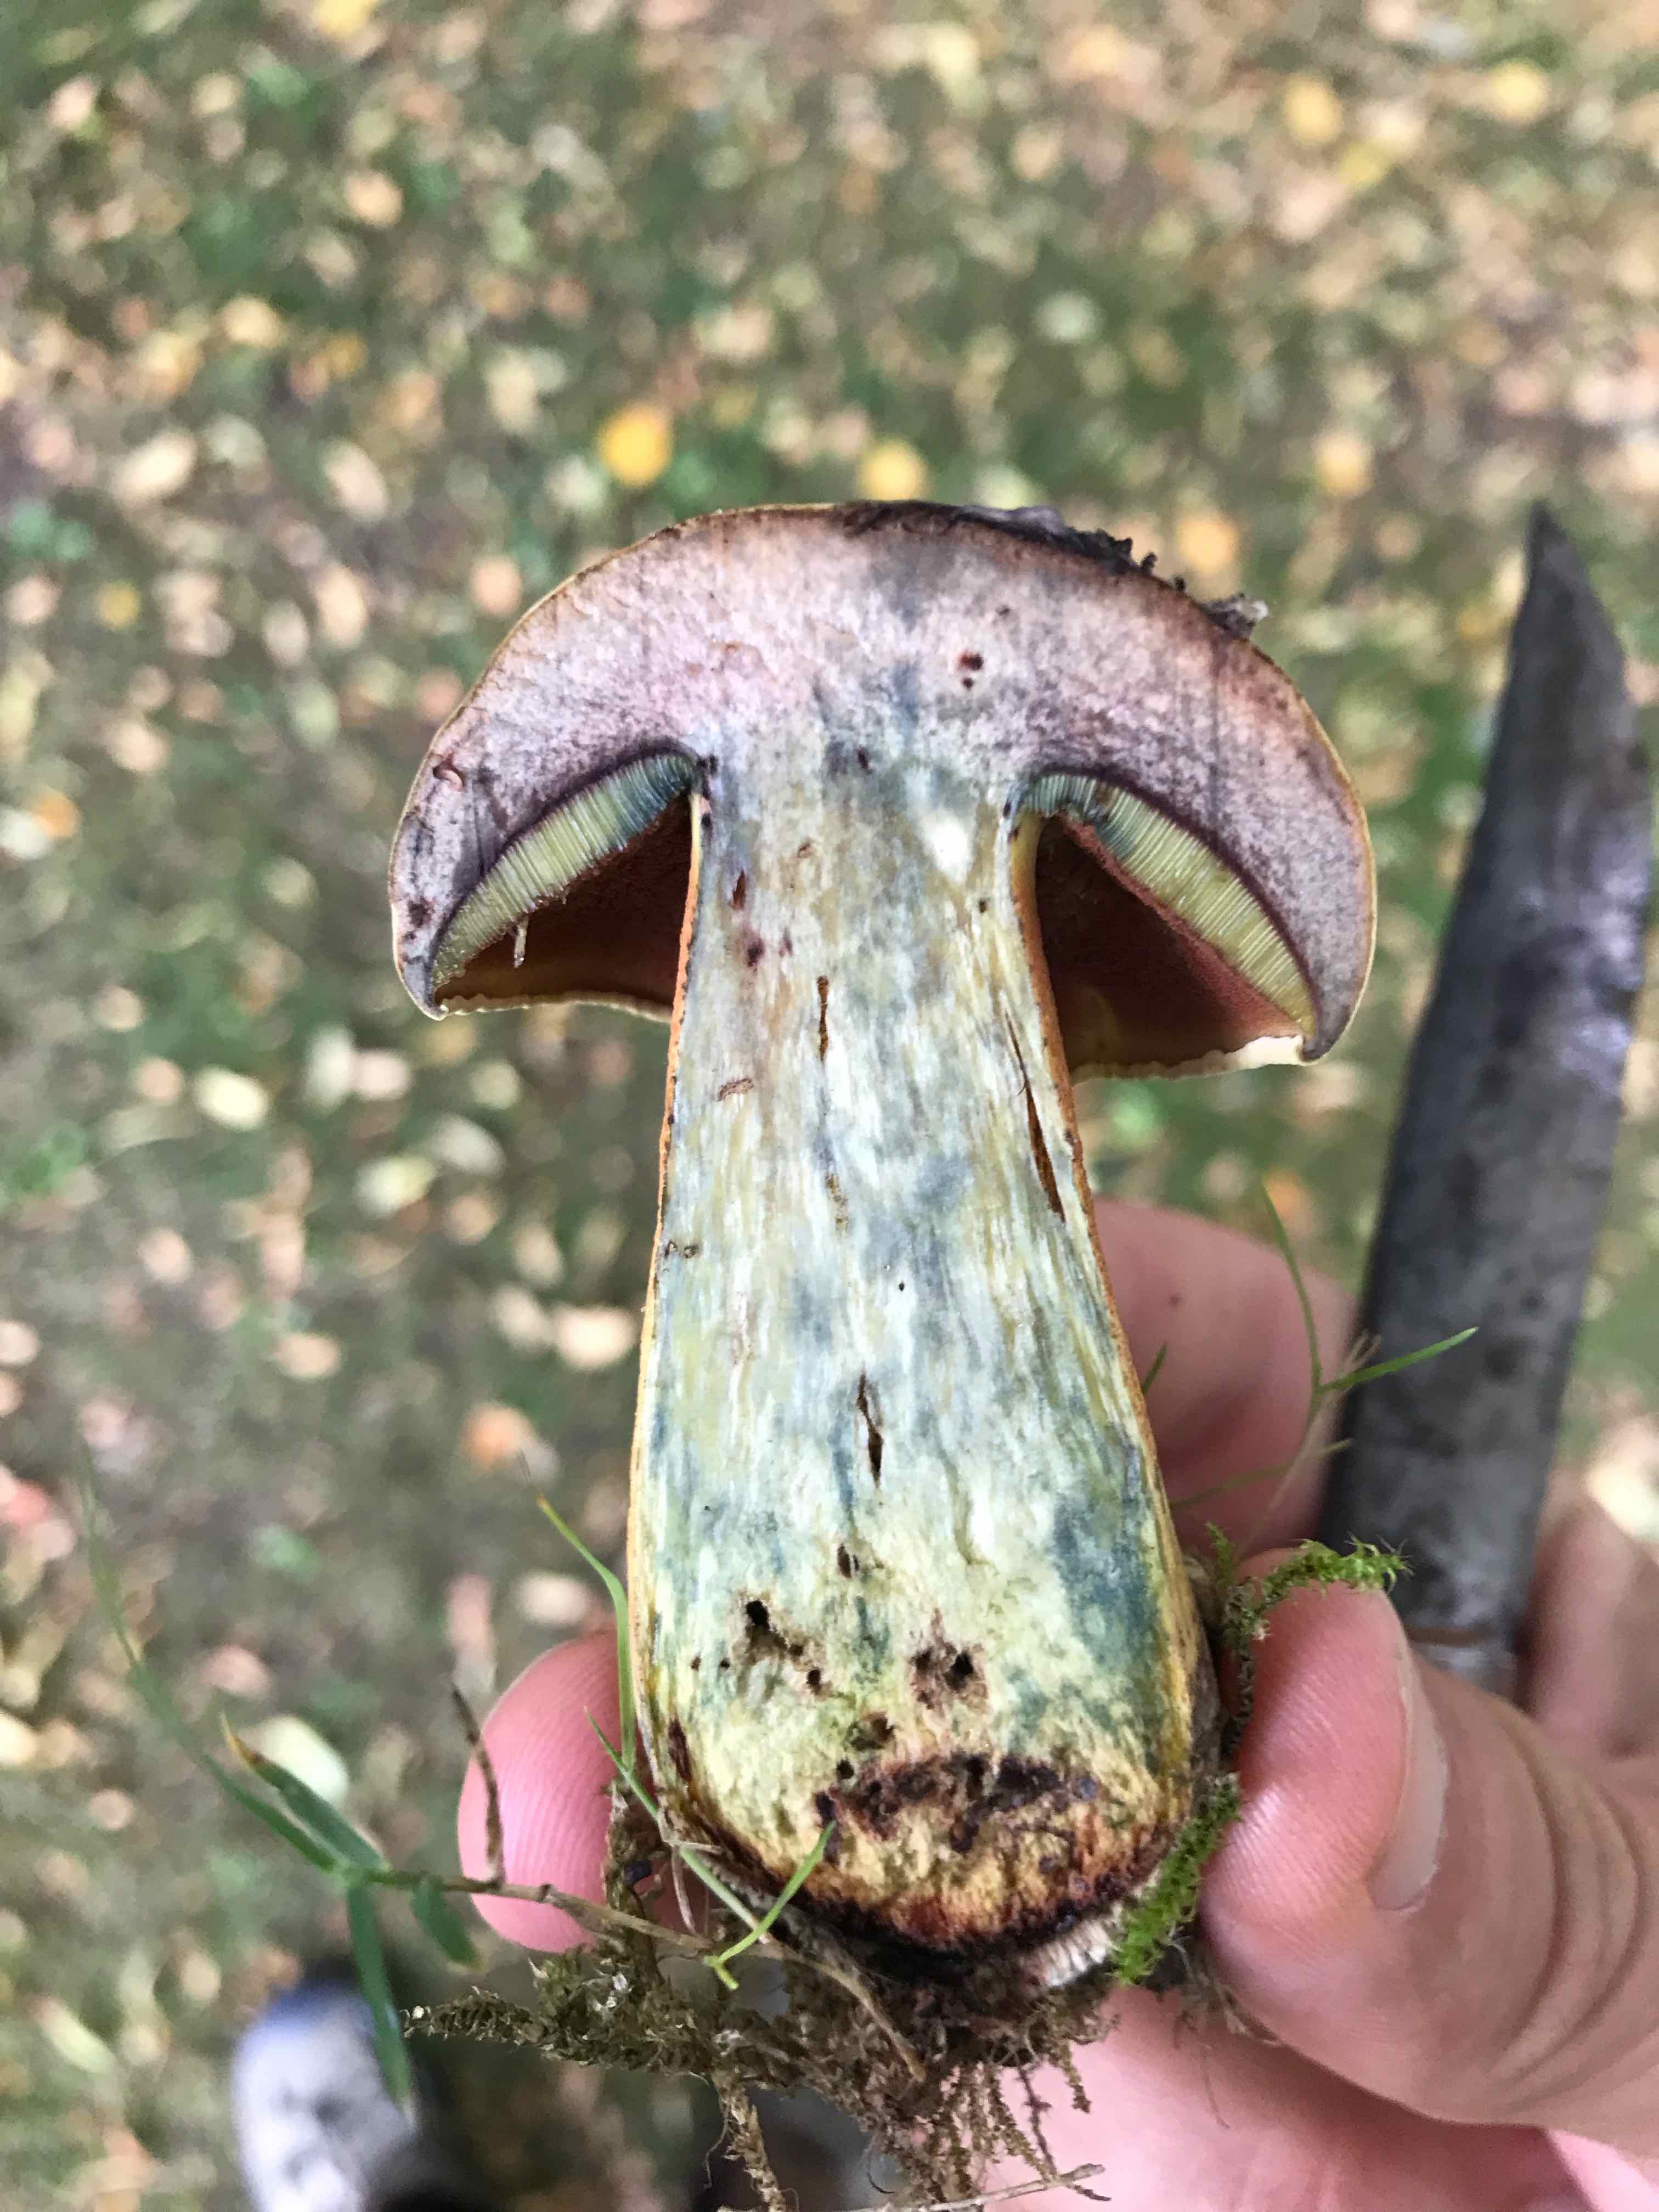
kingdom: Fungi
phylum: Basidiomycota
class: Agaricomycetes
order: Boletales
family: Boletaceae
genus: Suillellus
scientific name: Suillellus luridus
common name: netstokket indigorørhat
